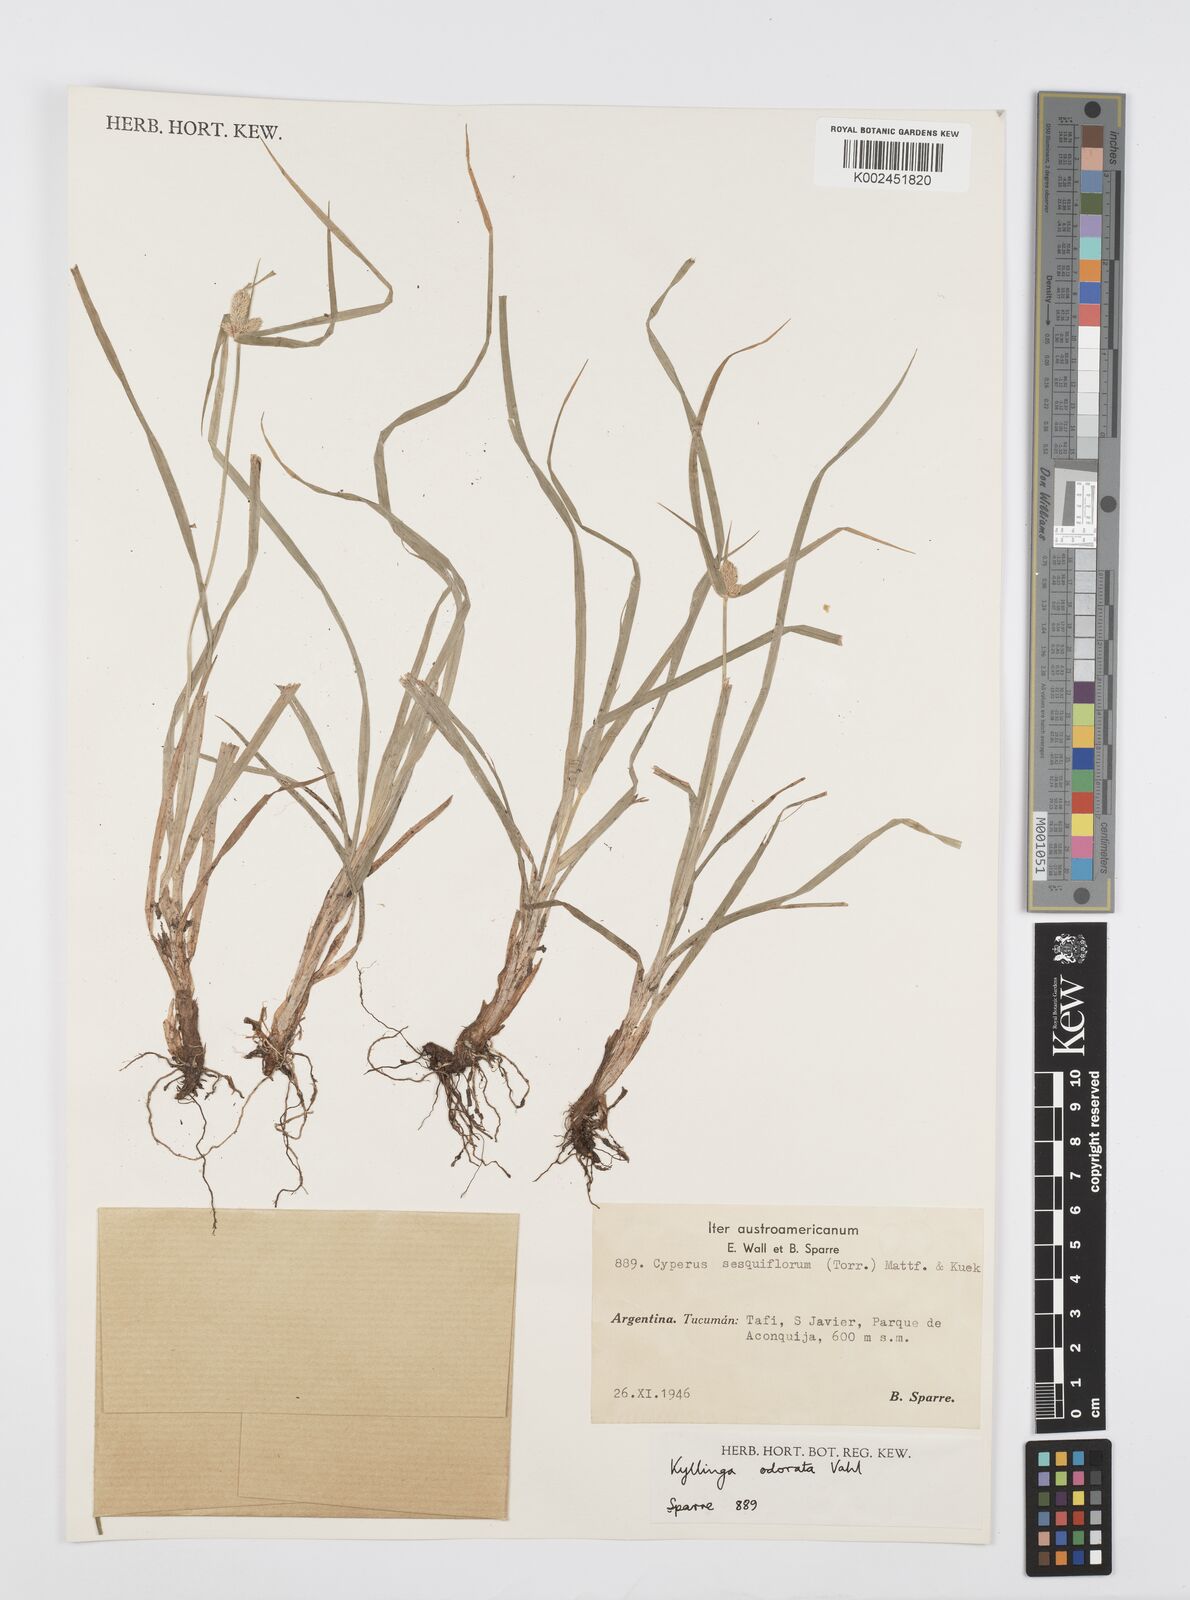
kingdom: Plantae
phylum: Tracheophyta
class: Liliopsida
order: Poales
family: Cyperaceae
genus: Cyperus
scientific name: Cyperus
